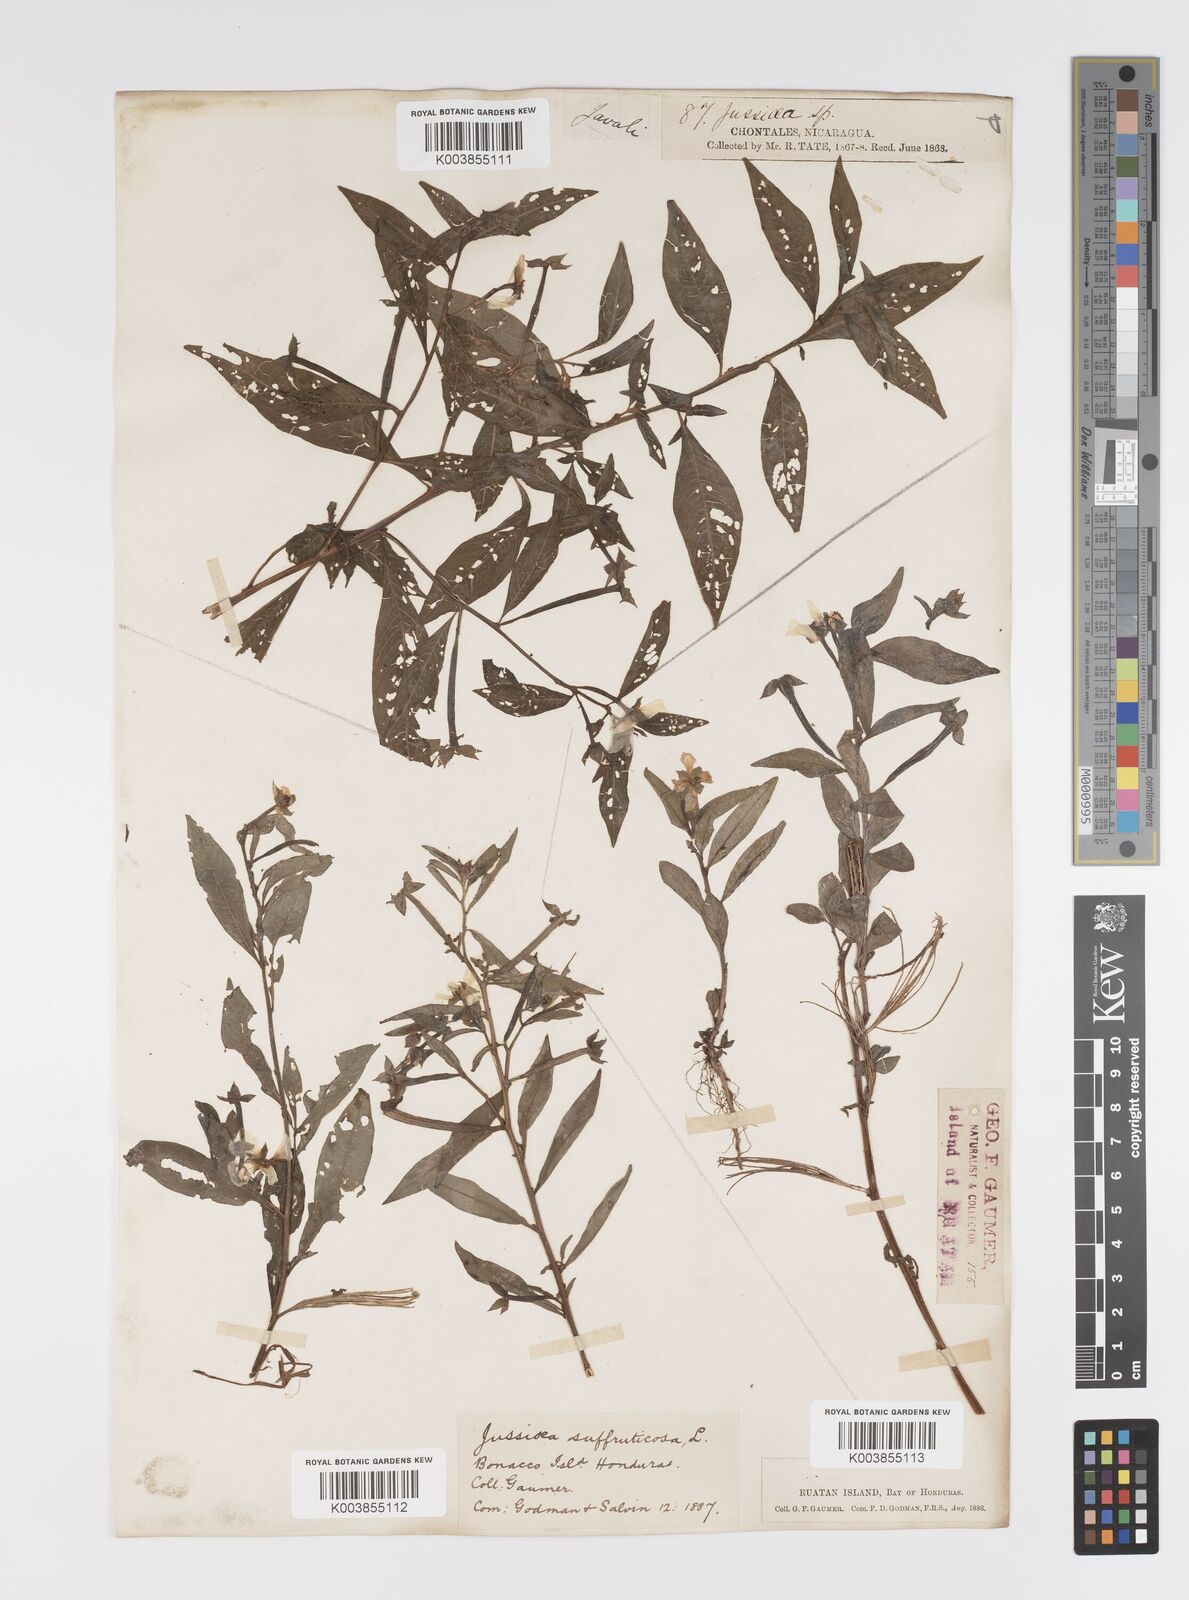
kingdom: Plantae
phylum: Tracheophyta
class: Magnoliopsida
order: Myrtales
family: Onagraceae
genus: Ludwigia
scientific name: Ludwigia octovalvis
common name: Water-primrose
